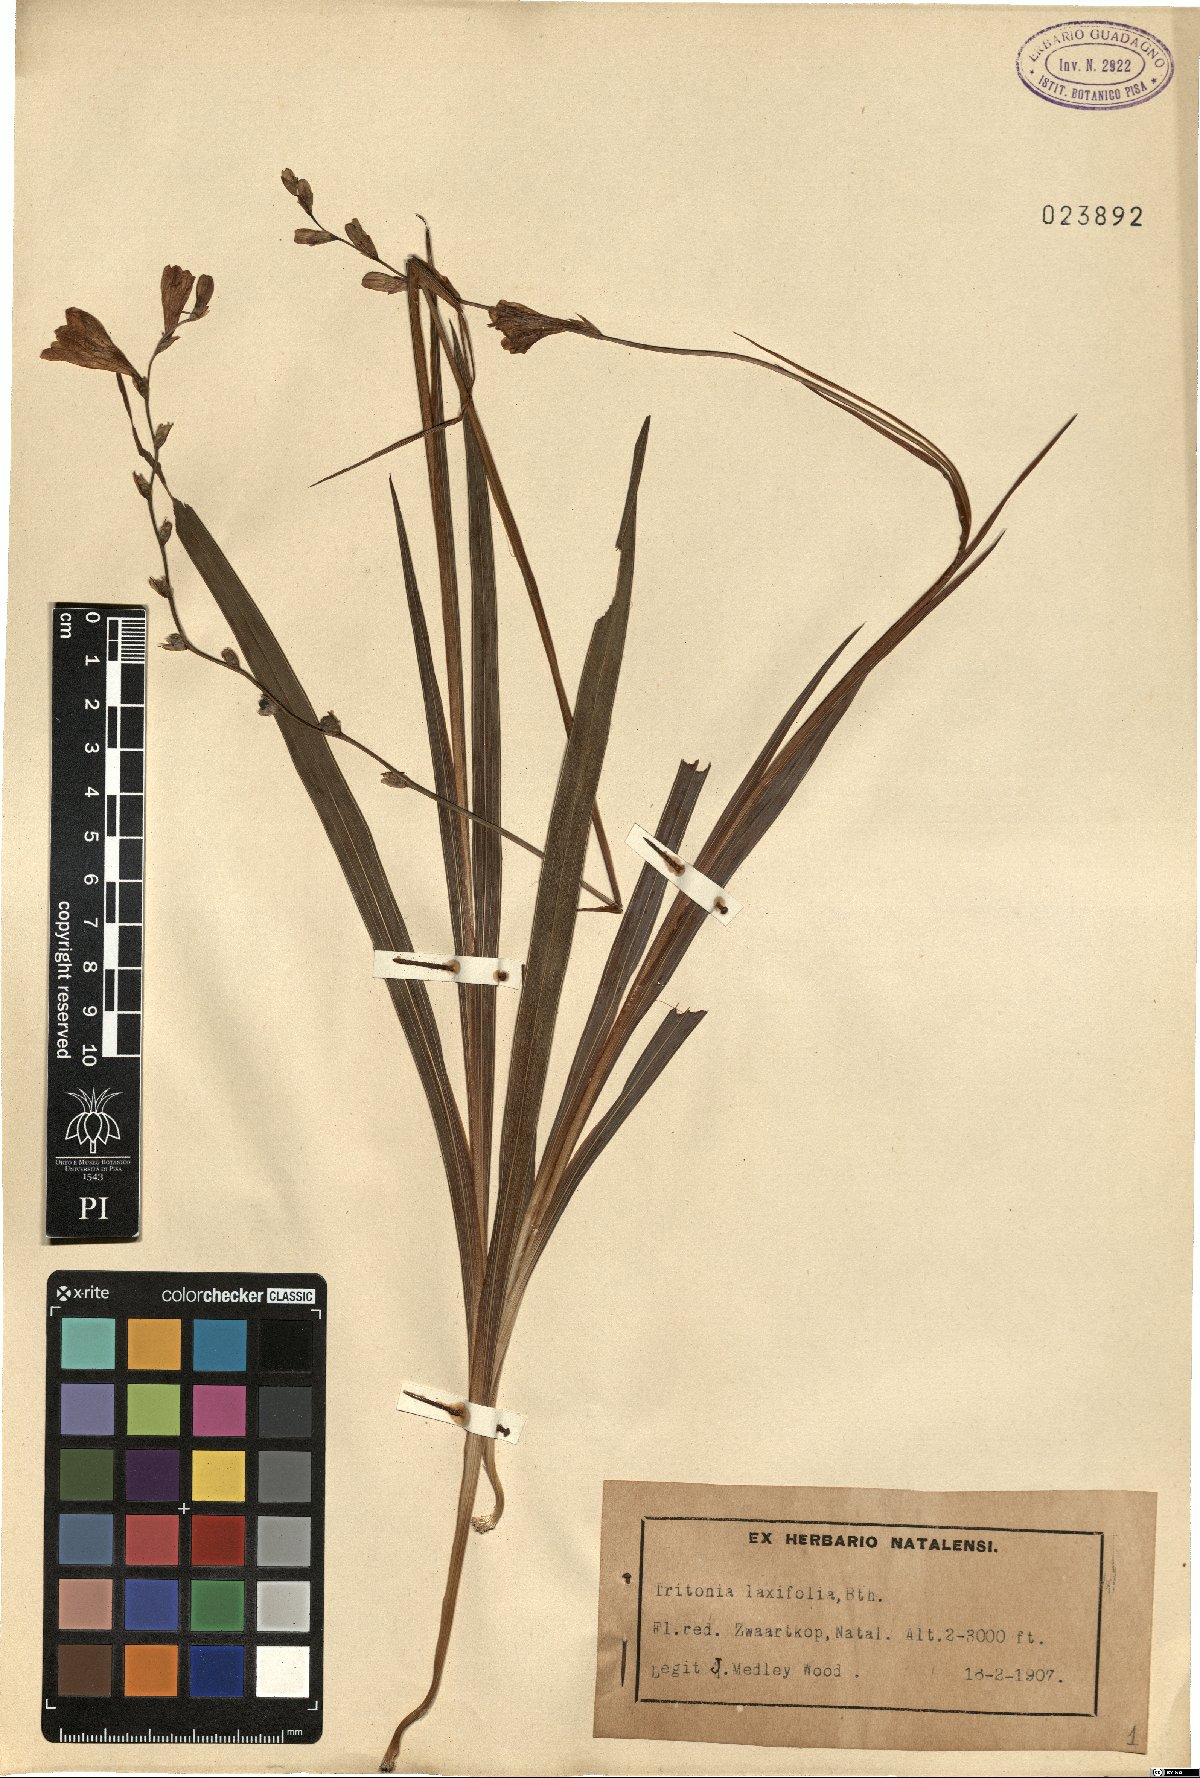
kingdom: Plantae
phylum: Tracheophyta
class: Liliopsida
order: Asparagales
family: Iridaceae
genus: Tritonia
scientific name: Tritonia laxifolia
